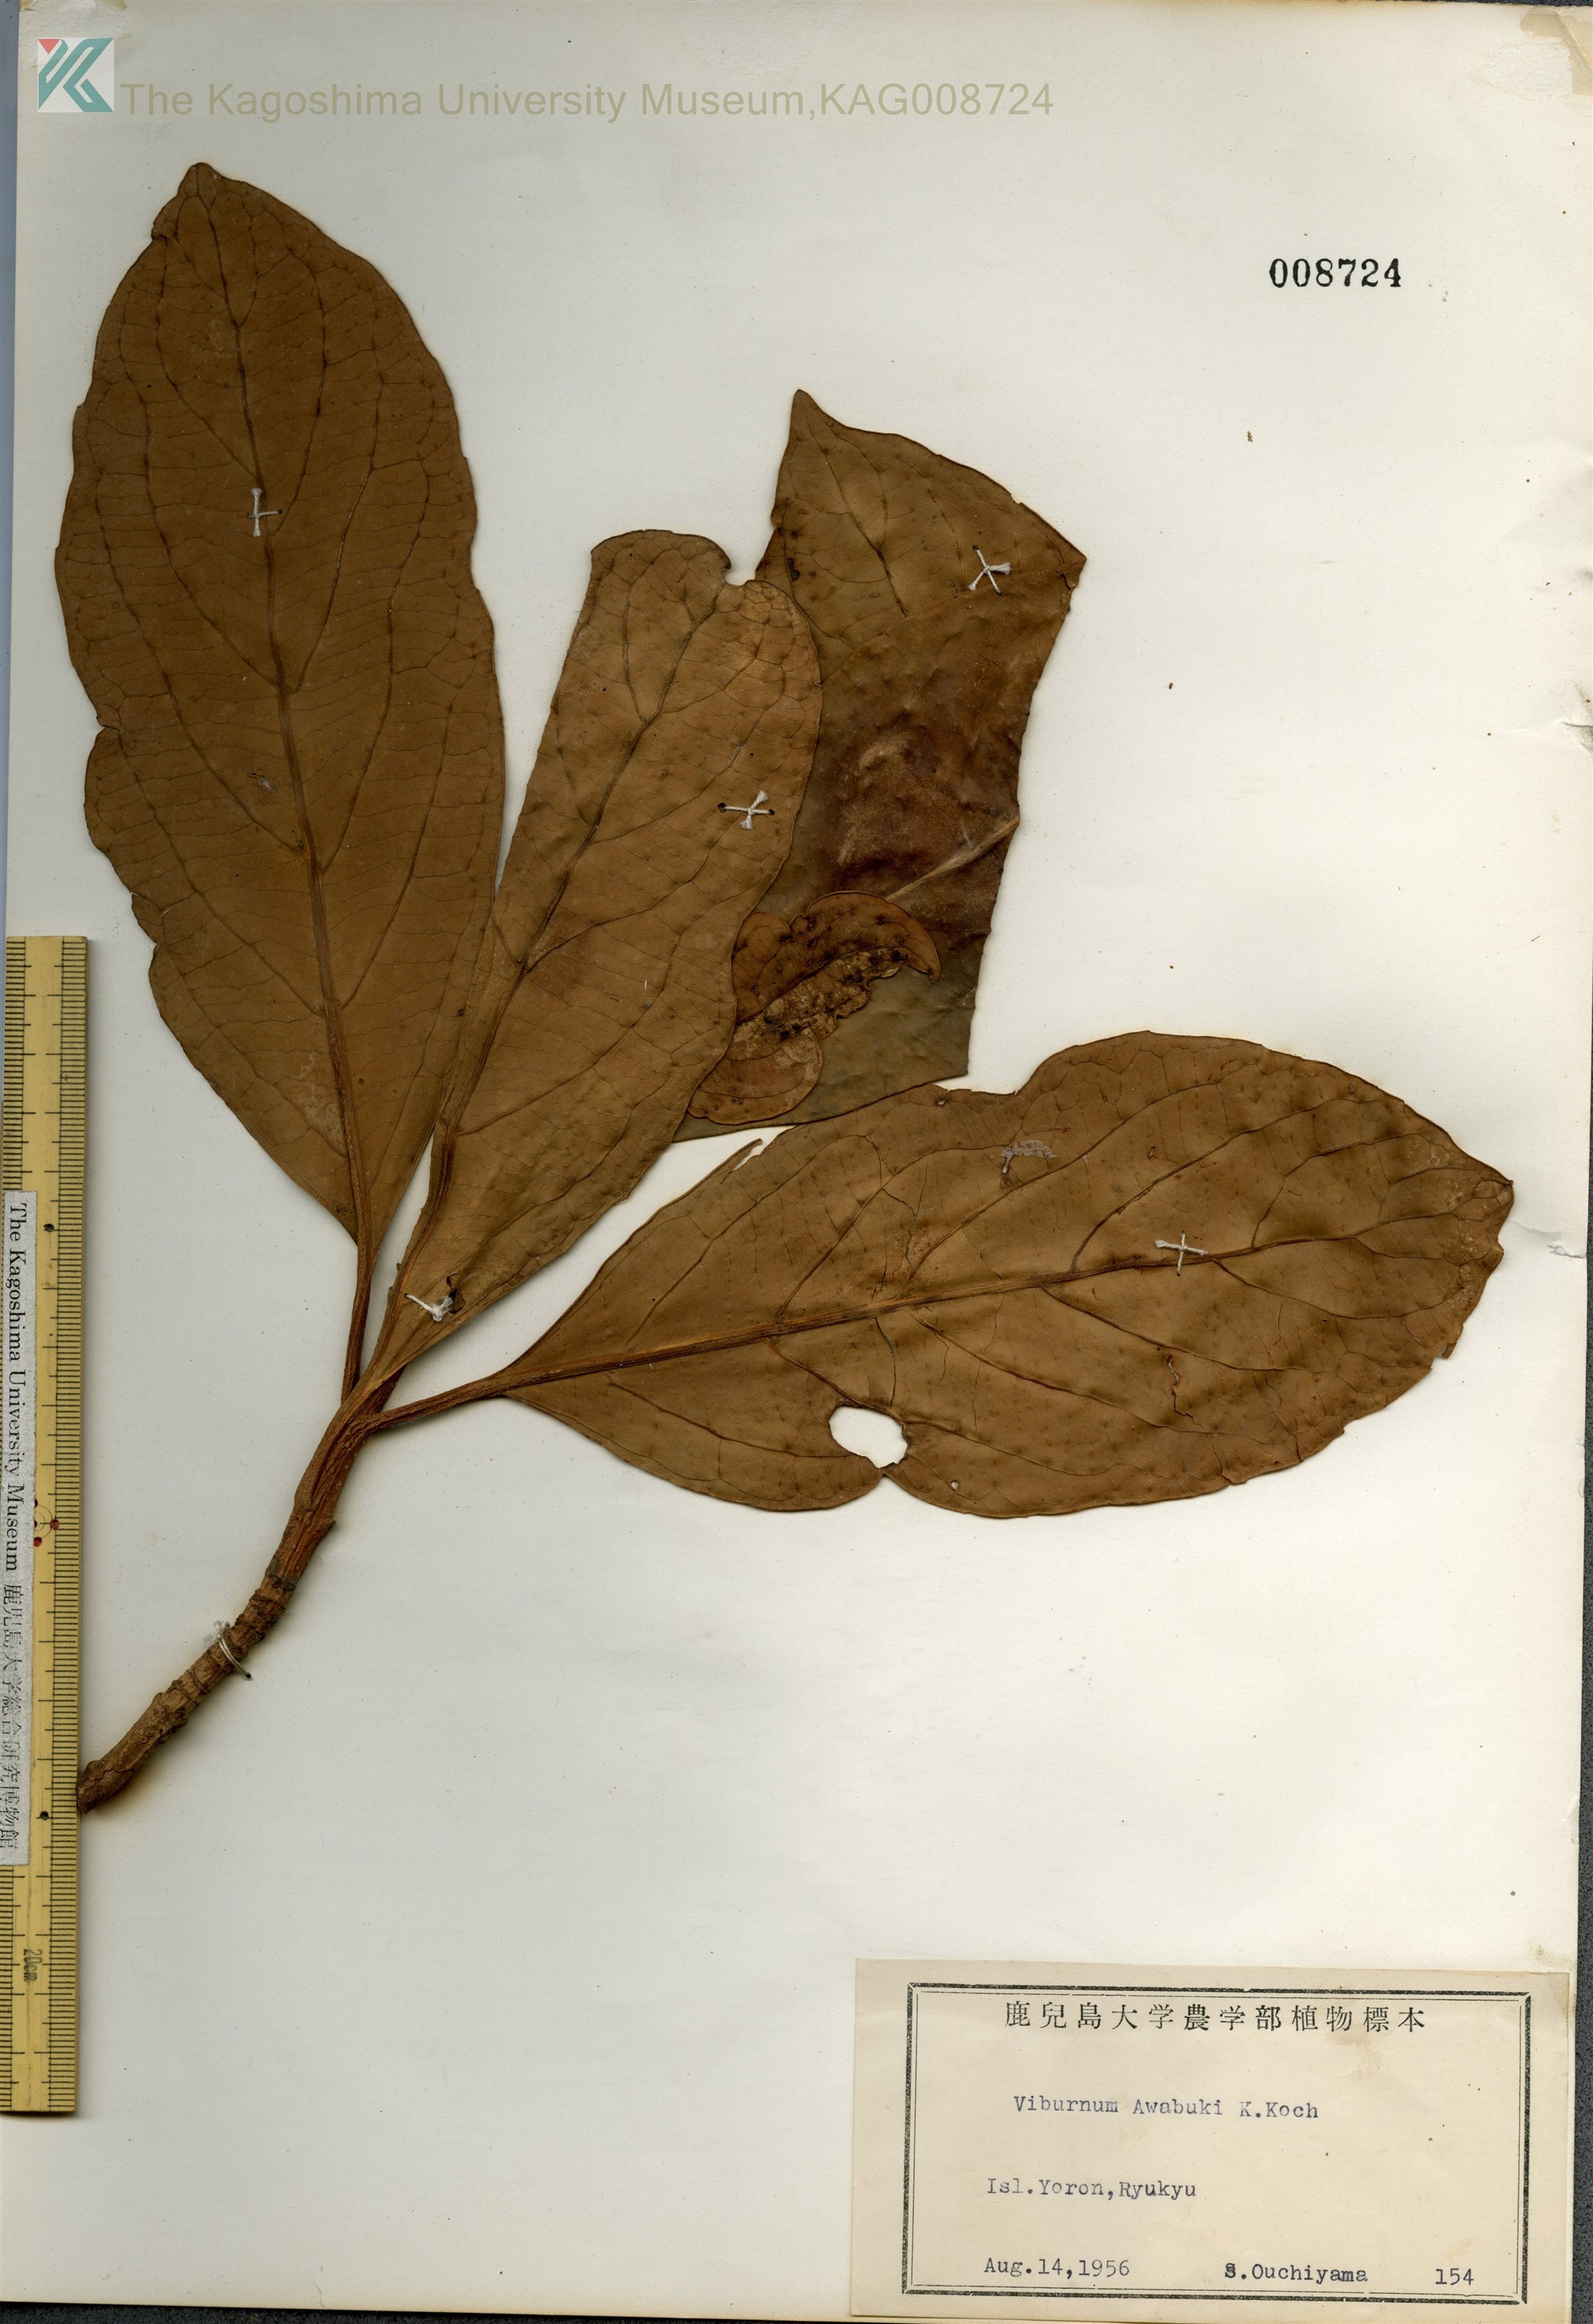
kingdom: Plantae
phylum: Tracheophyta
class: Magnoliopsida
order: Dipsacales
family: Viburnaceae
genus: Viburnum
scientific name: Viburnum odoratissimum
